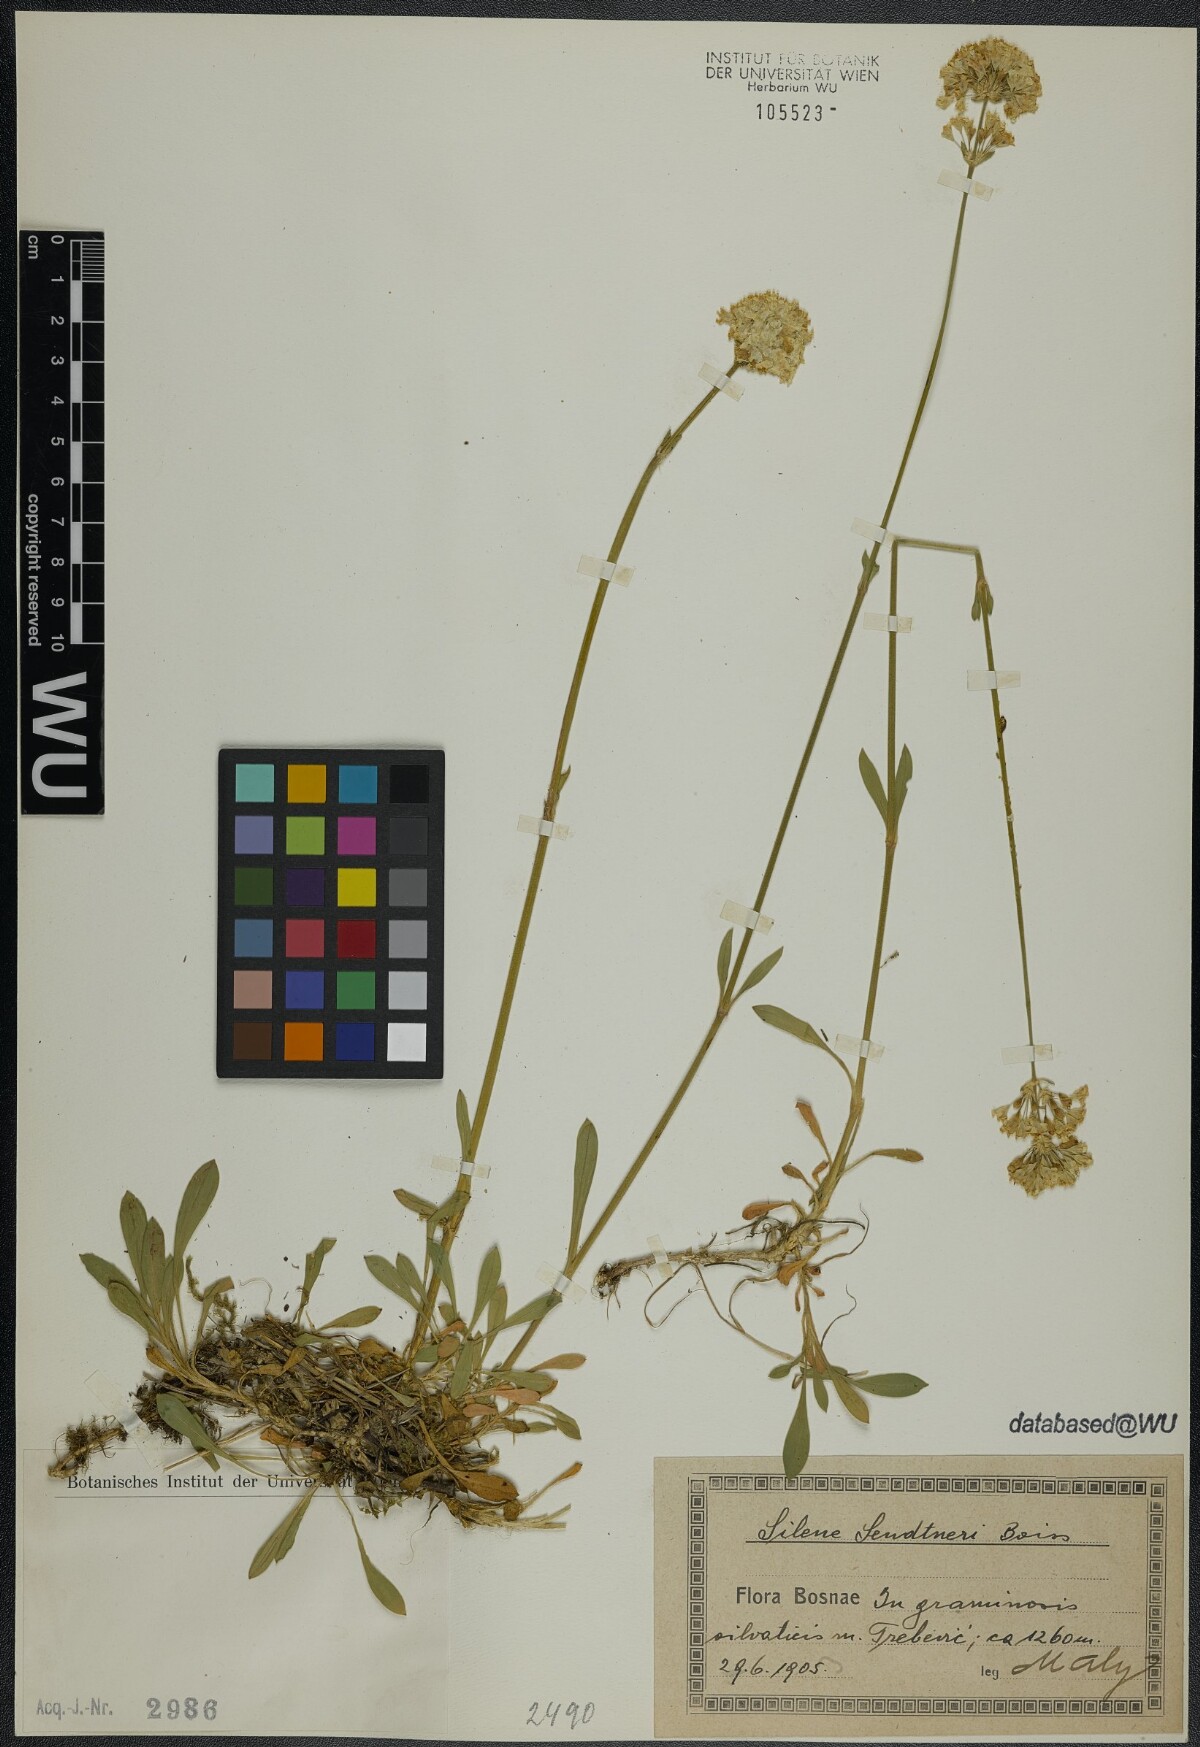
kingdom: Plantae
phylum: Tracheophyta
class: Magnoliopsida
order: Caryophyllales
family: Caryophyllaceae
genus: Silene
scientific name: Silene sendtneri
